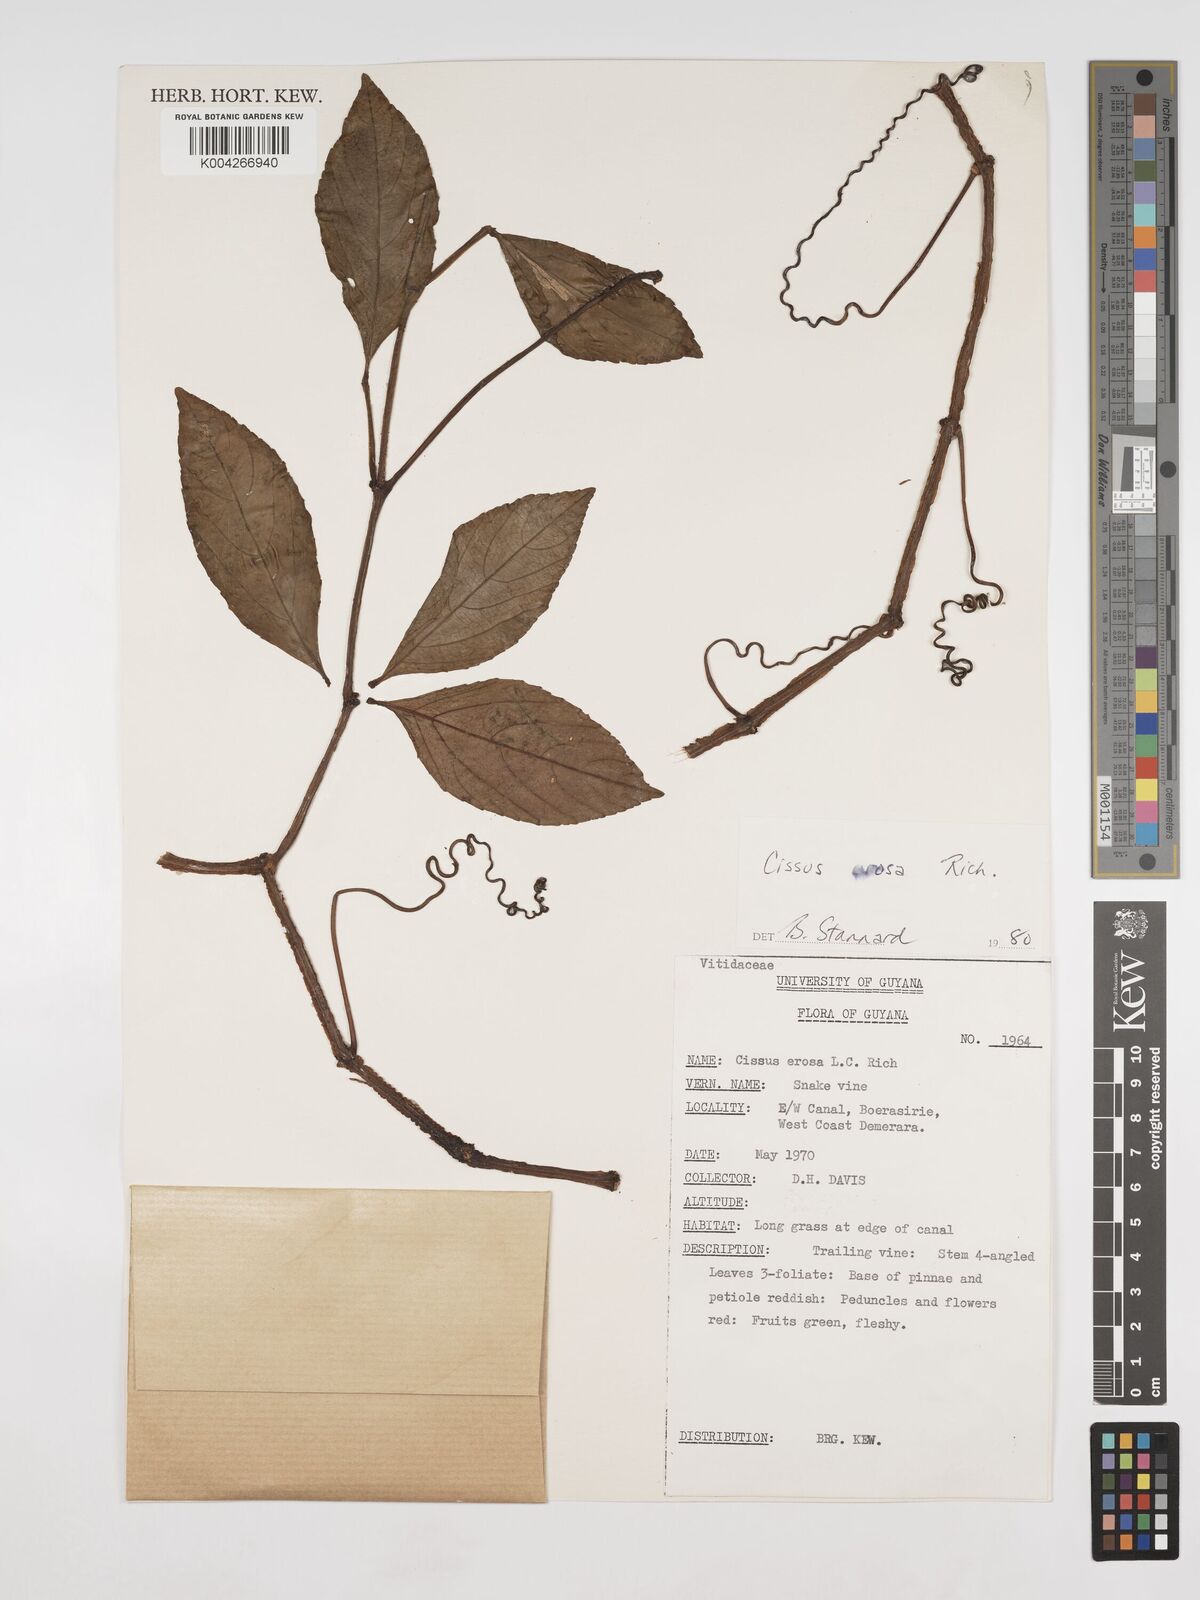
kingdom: Plantae
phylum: Tracheophyta
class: Magnoliopsida
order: Vitales
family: Vitaceae
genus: Cissus
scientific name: Cissus erosa
